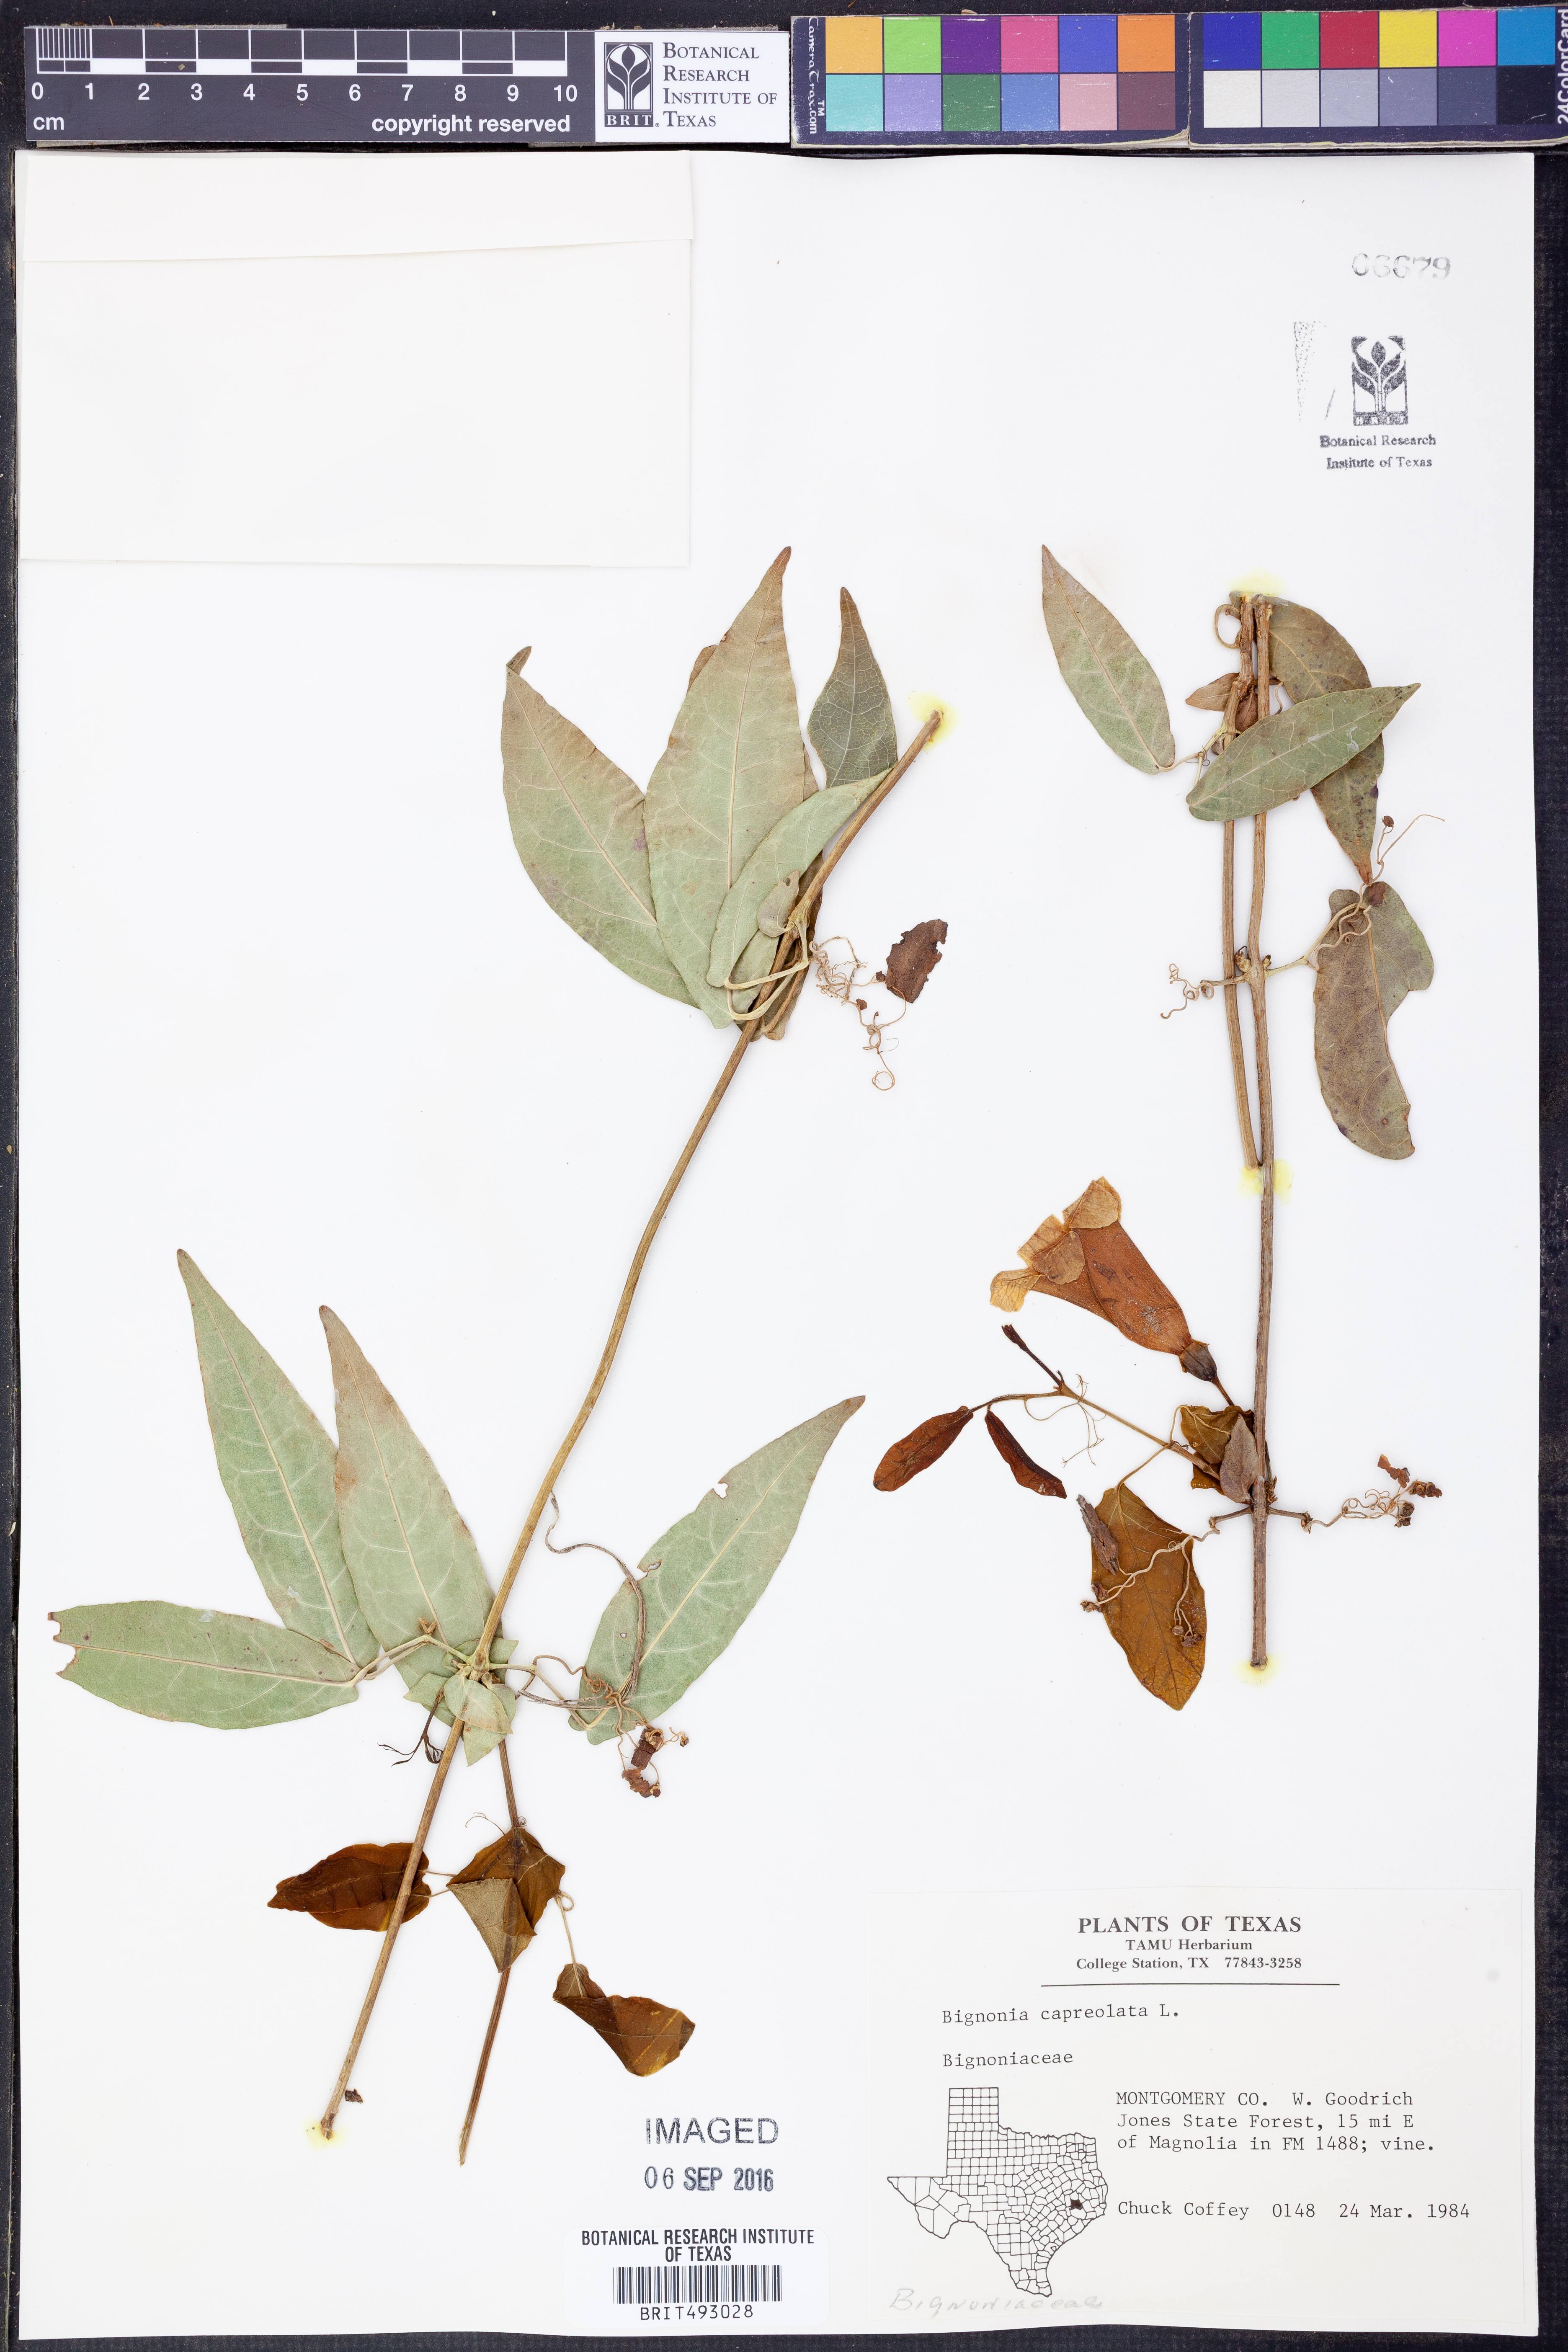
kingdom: Plantae
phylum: Tracheophyta
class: Magnoliopsida
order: Lamiales
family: Bignoniaceae
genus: Bignonia
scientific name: Bignonia capreolata
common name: Crossvine
